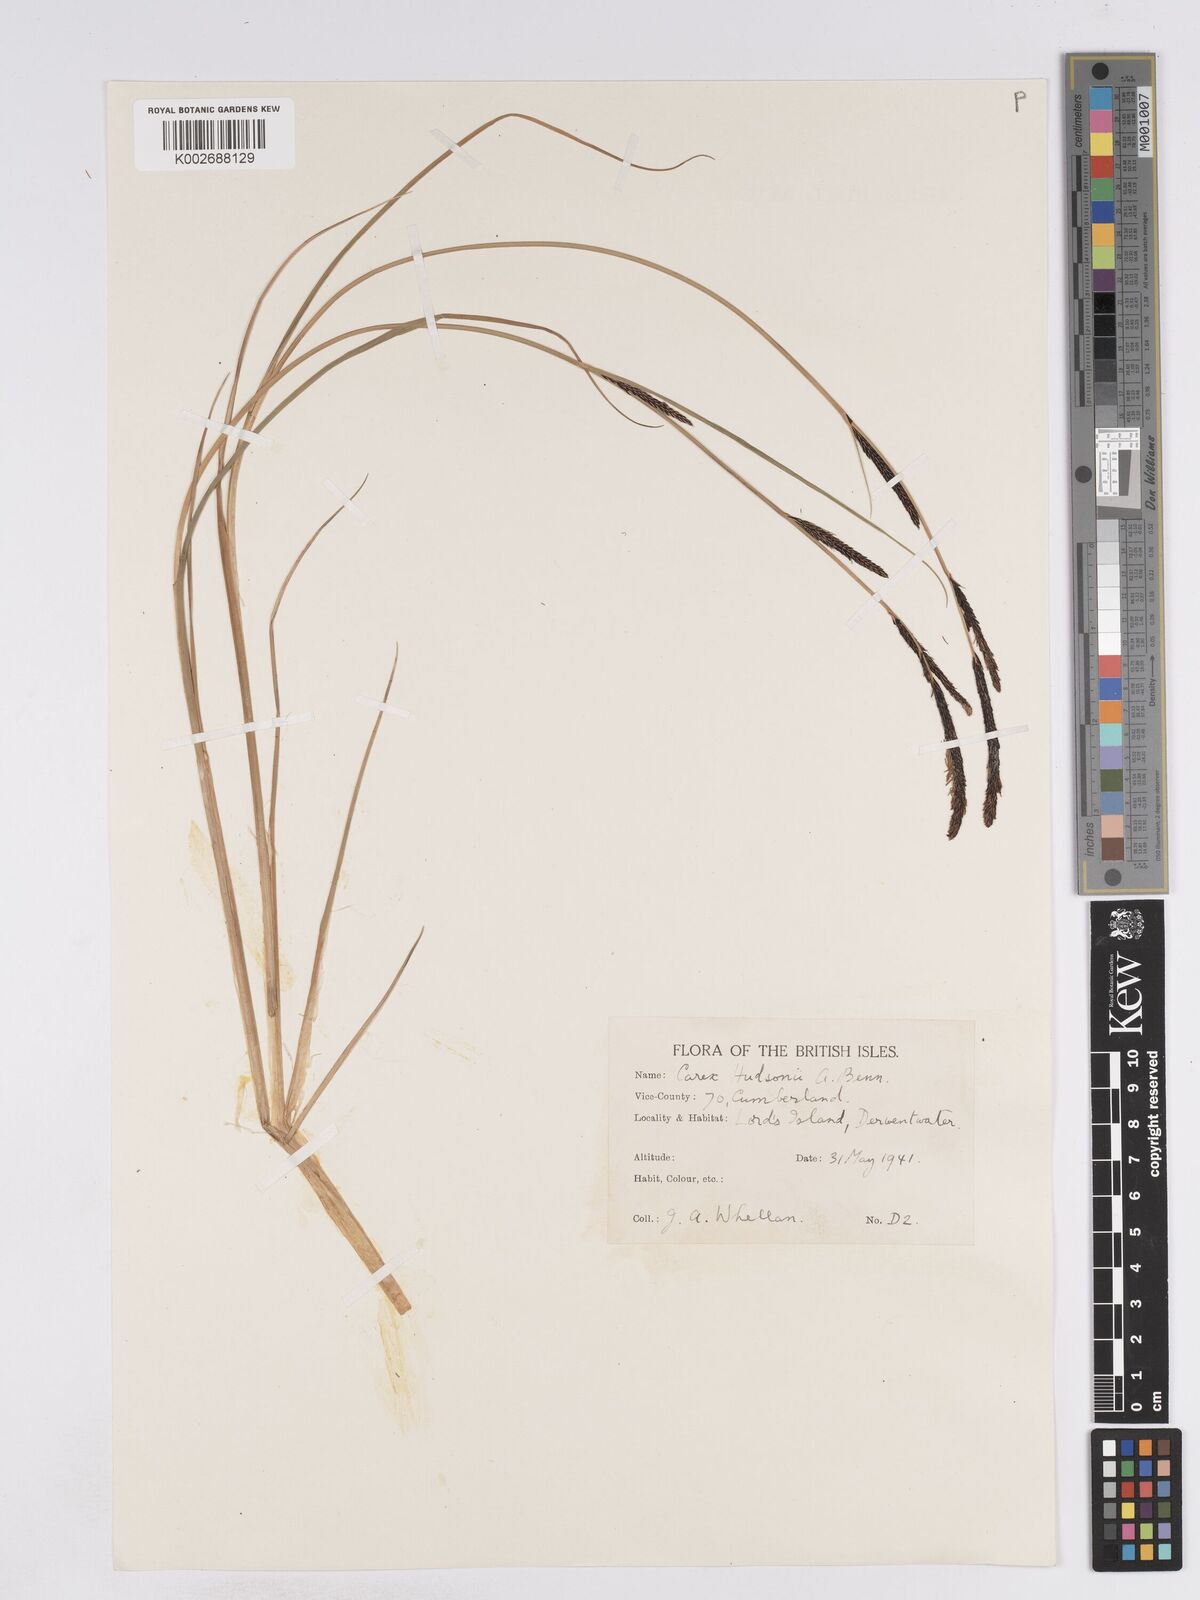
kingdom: Plantae
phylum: Tracheophyta
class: Liliopsida
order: Poales
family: Cyperaceae
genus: Carex
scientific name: Carex elata
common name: Tufted sedge
